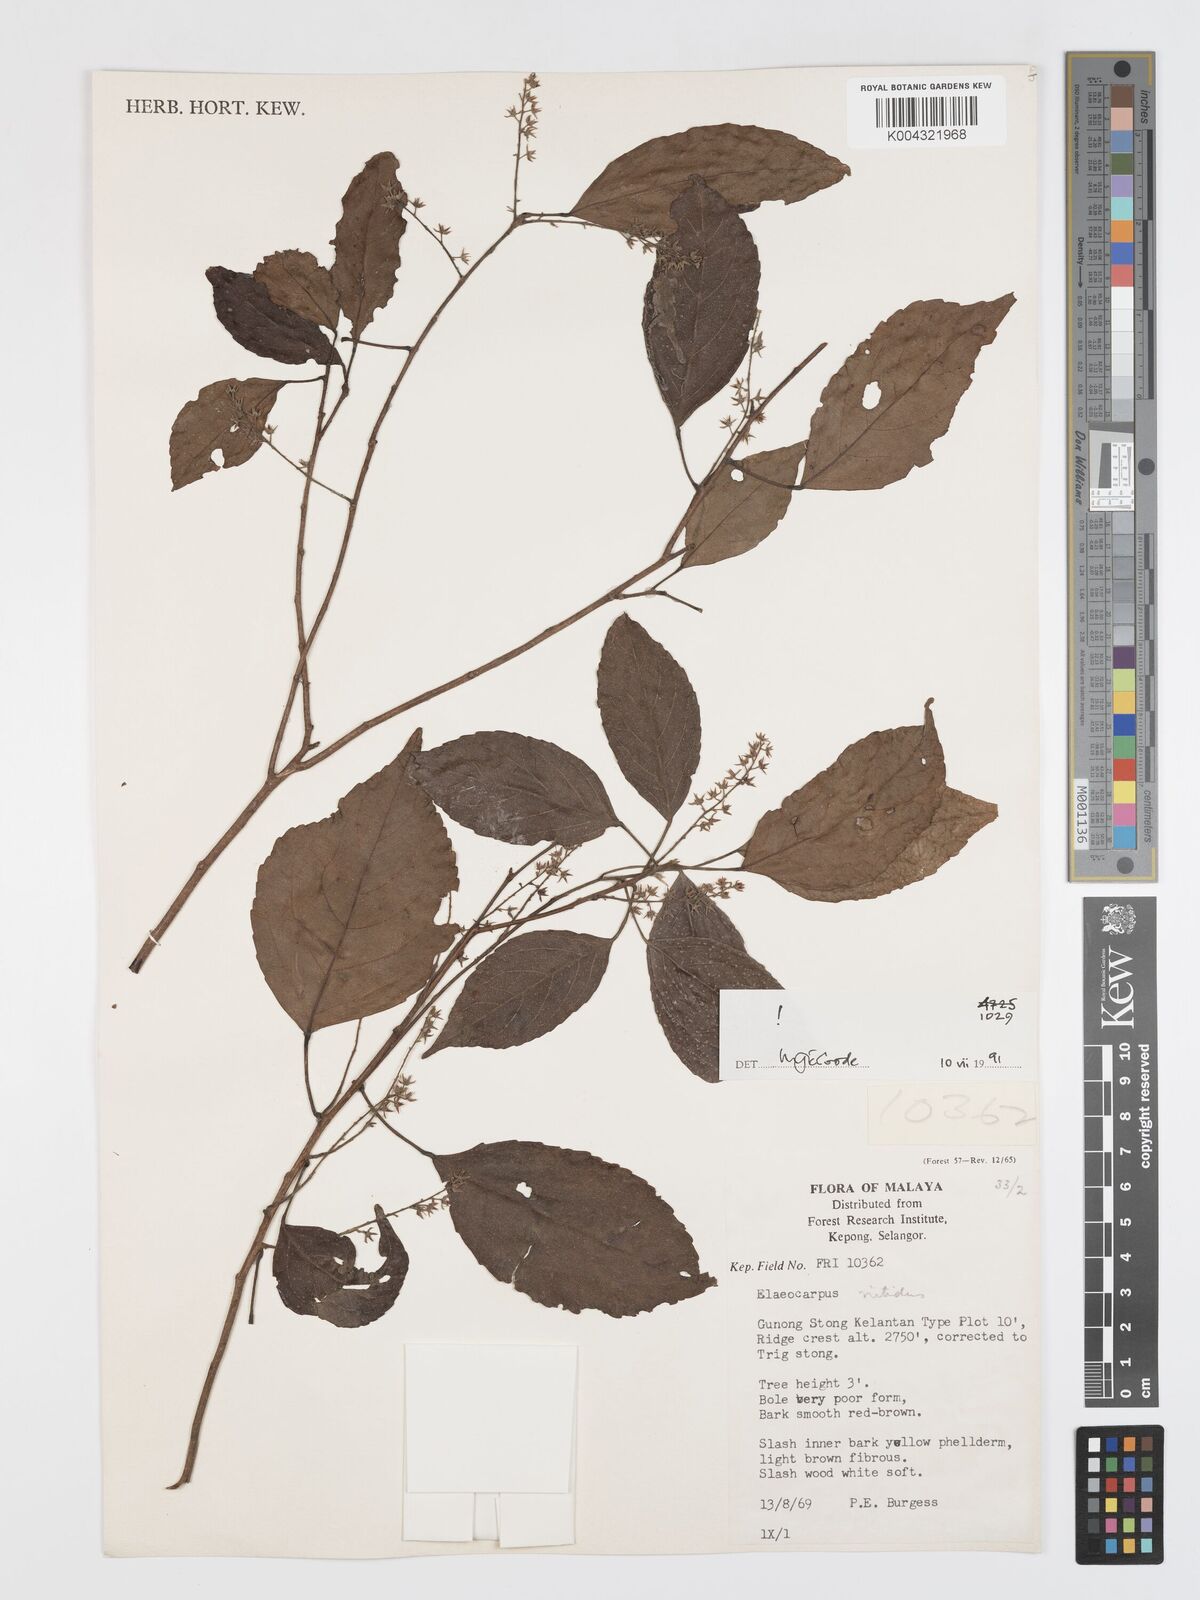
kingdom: Plantae
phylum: Tracheophyta
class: Magnoliopsida
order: Oxalidales
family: Elaeocarpaceae
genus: Elaeocarpus
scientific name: Elaeocarpus nitidus
